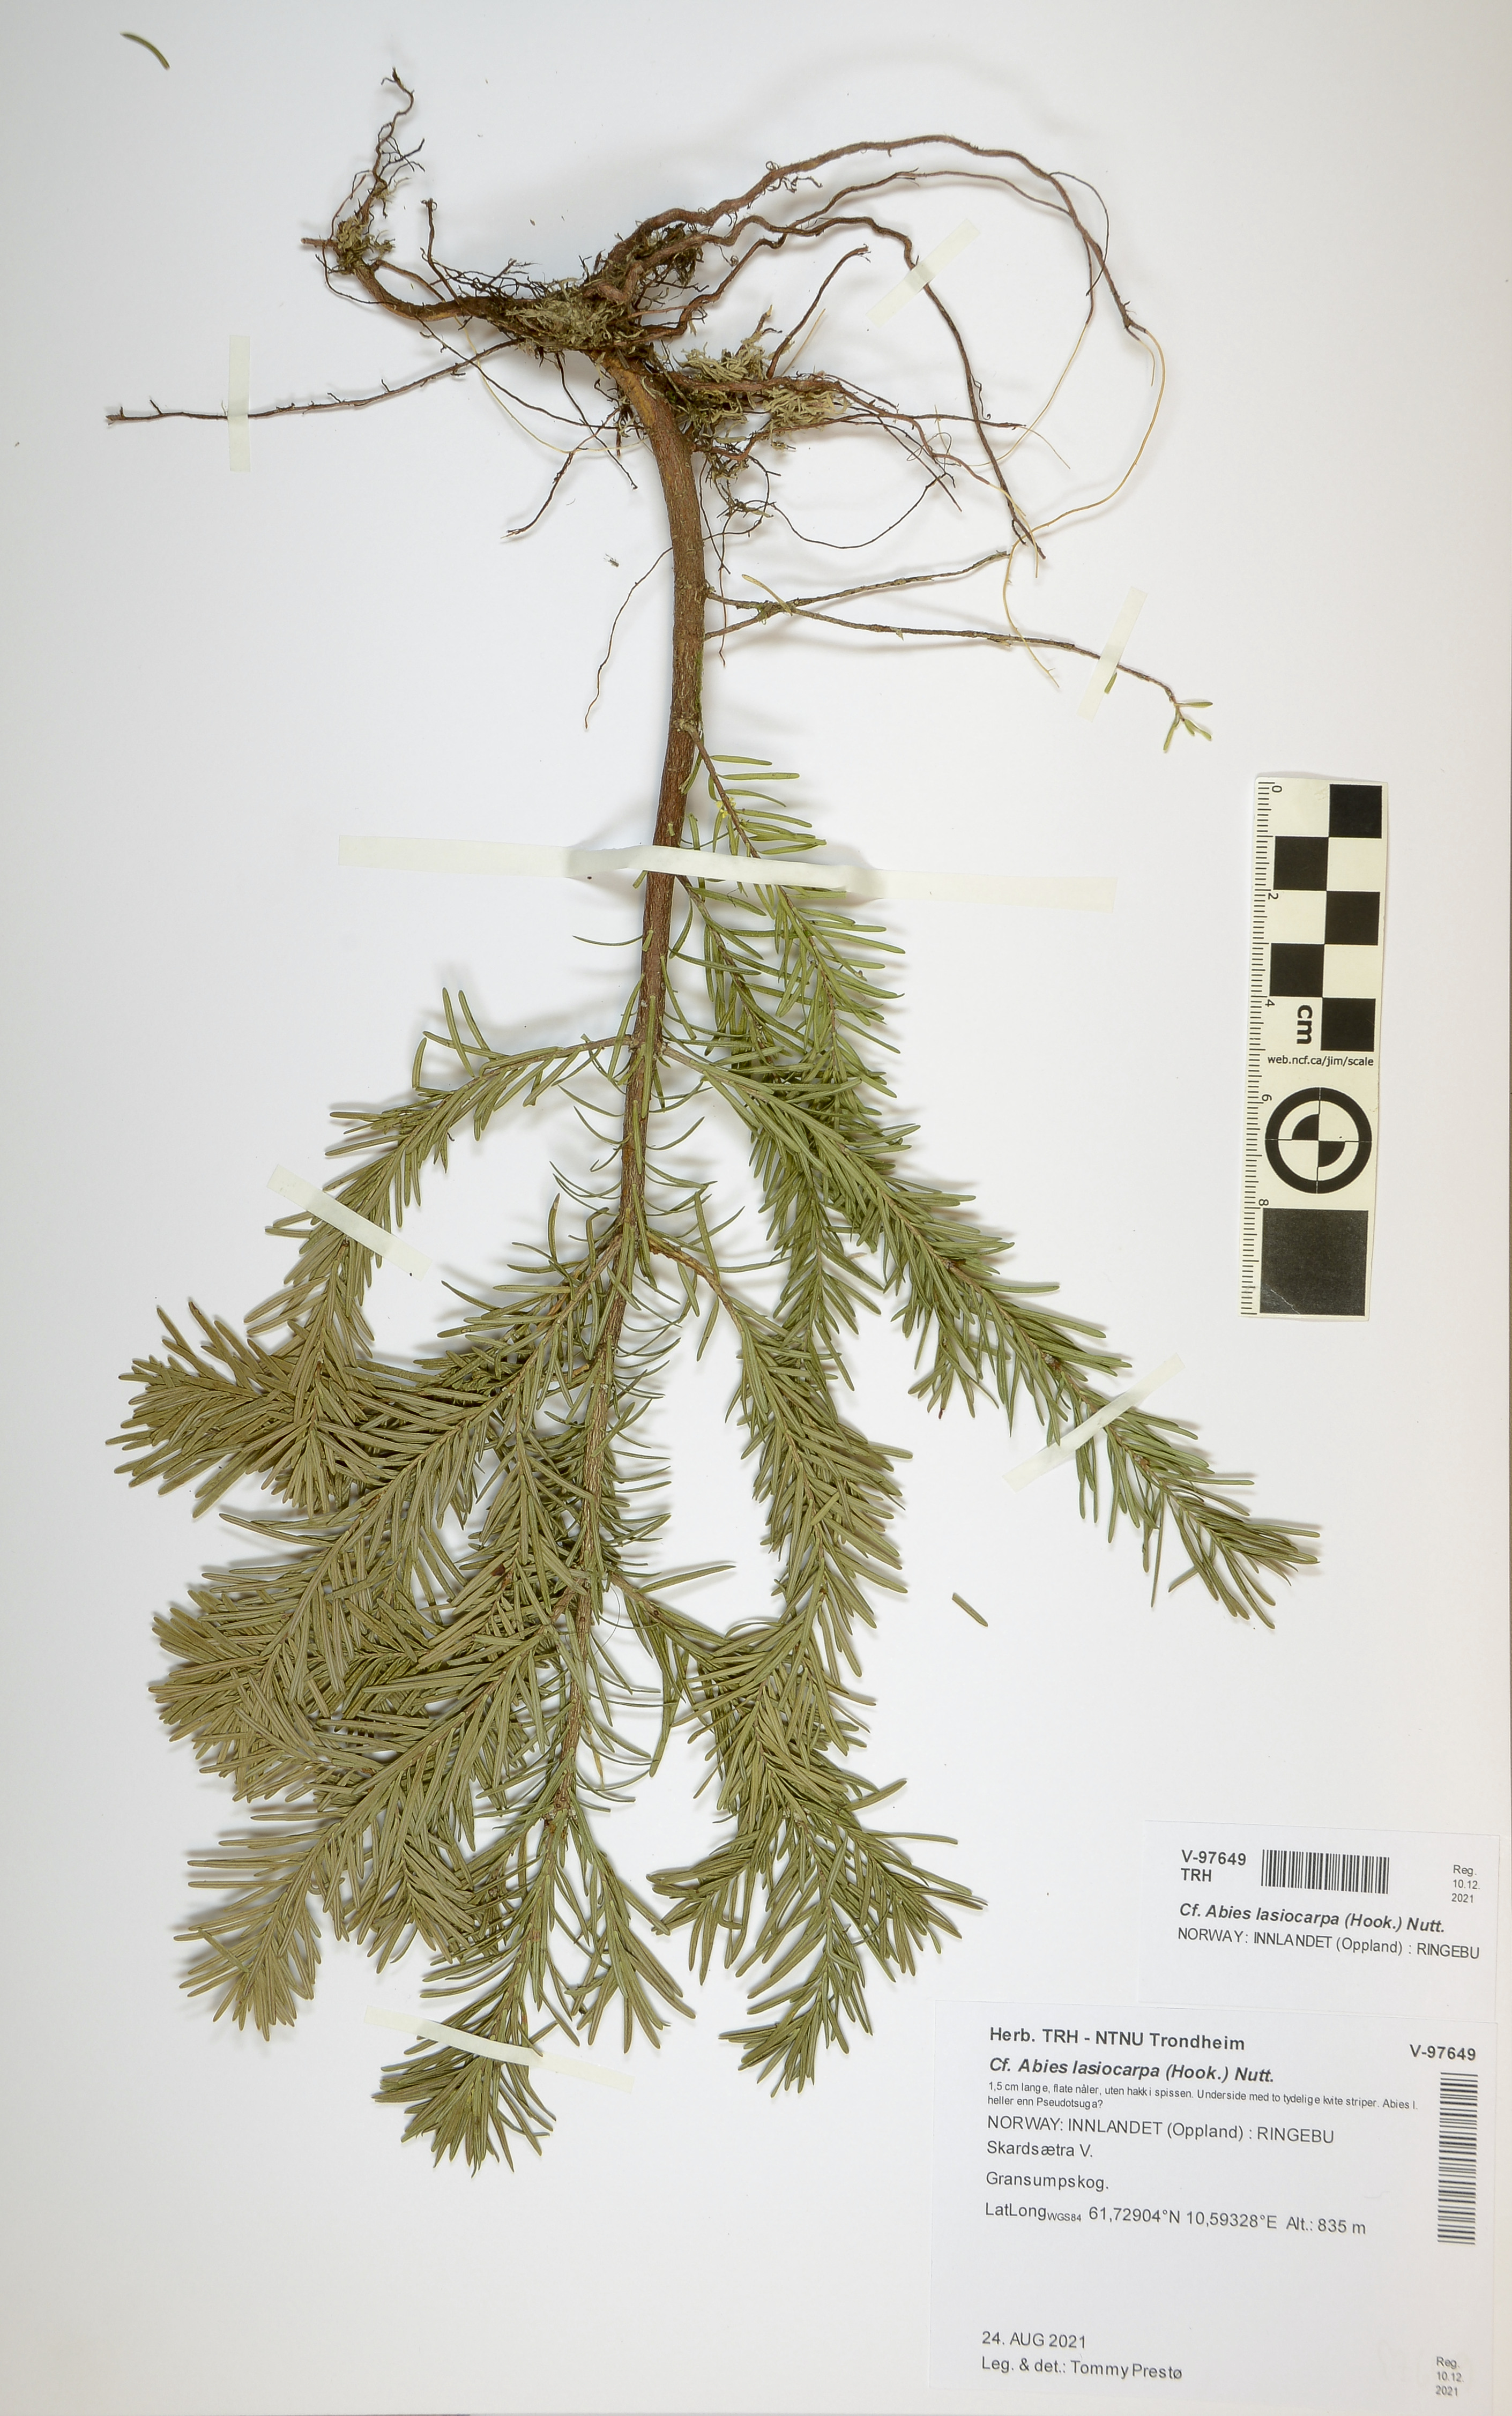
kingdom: Plantae
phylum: Tracheophyta
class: Pinopsida
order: Pinales
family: Pinaceae
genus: Abies
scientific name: Abies lasiocarpa
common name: Subalpine fir
